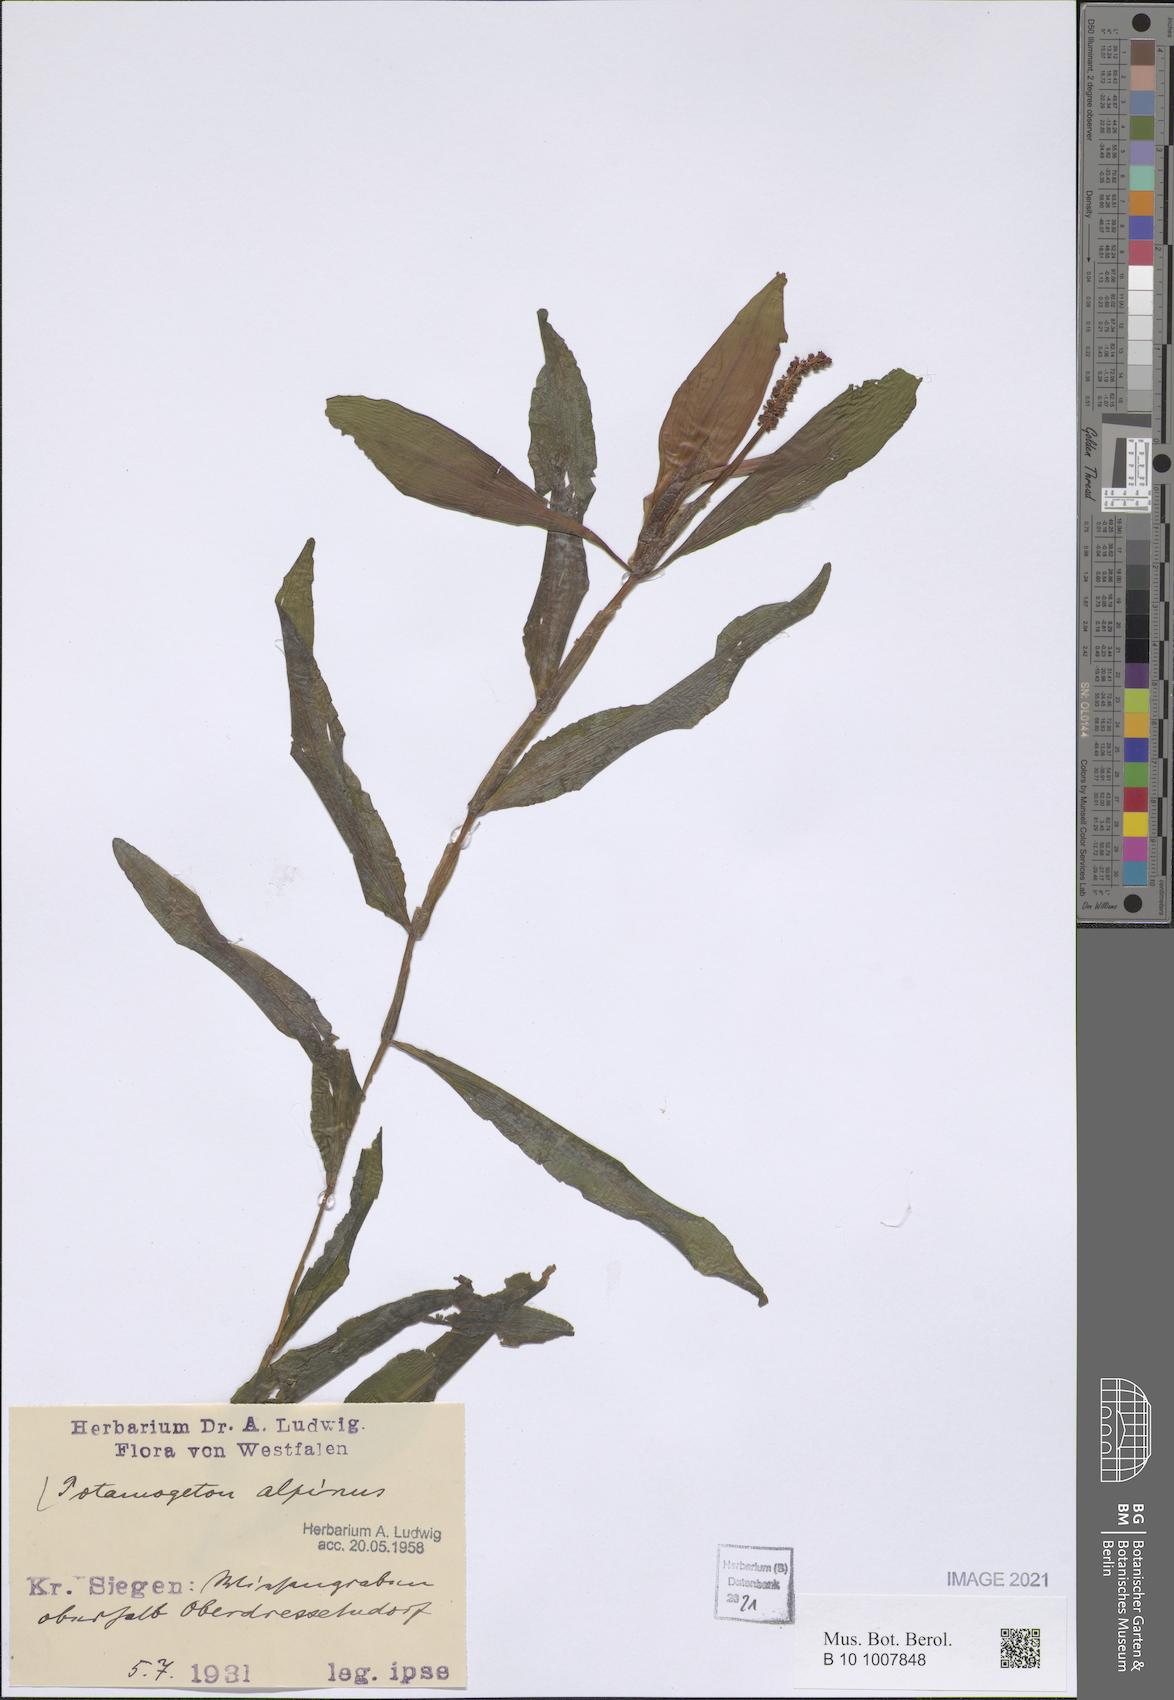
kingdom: Plantae
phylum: Tracheophyta
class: Liliopsida
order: Alismatales
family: Potamogetonaceae
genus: Potamogeton
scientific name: Potamogeton alpinus
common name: Red pondweed
